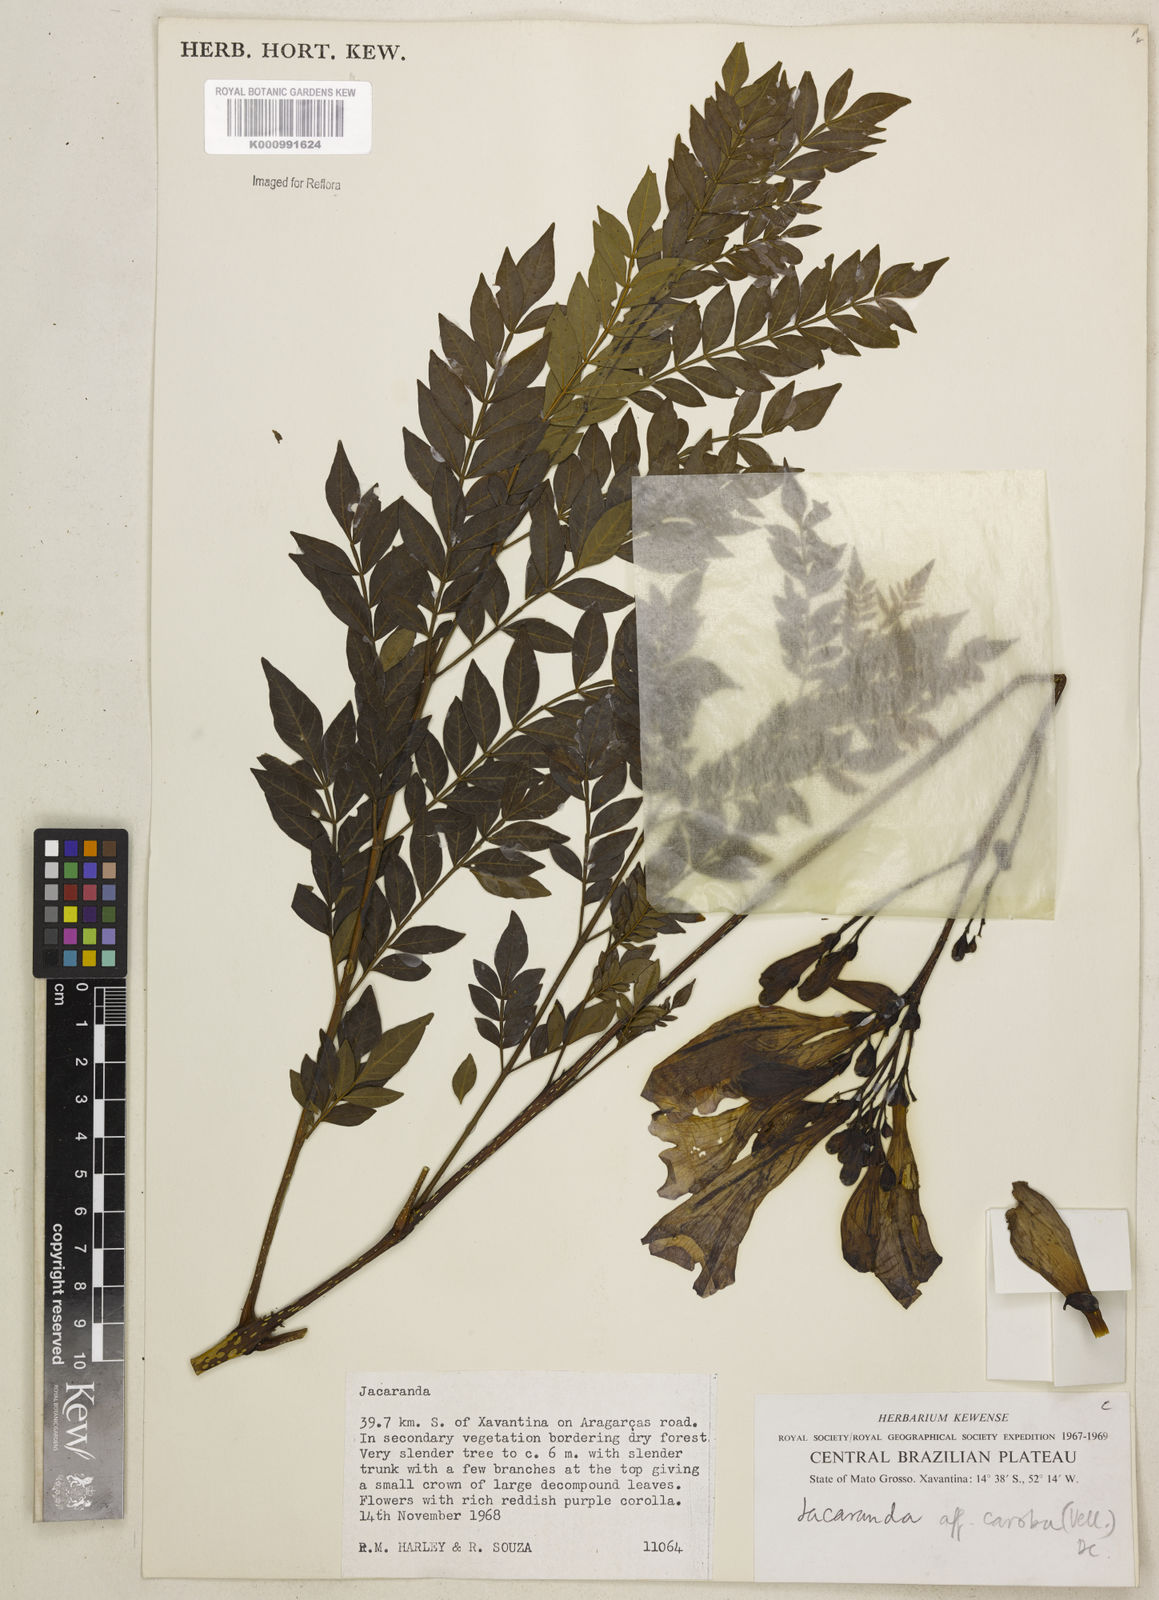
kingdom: Plantae
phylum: Tracheophyta
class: Magnoliopsida
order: Lamiales
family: Bignoniaceae
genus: Jacaranda
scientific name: Jacaranda caroba
